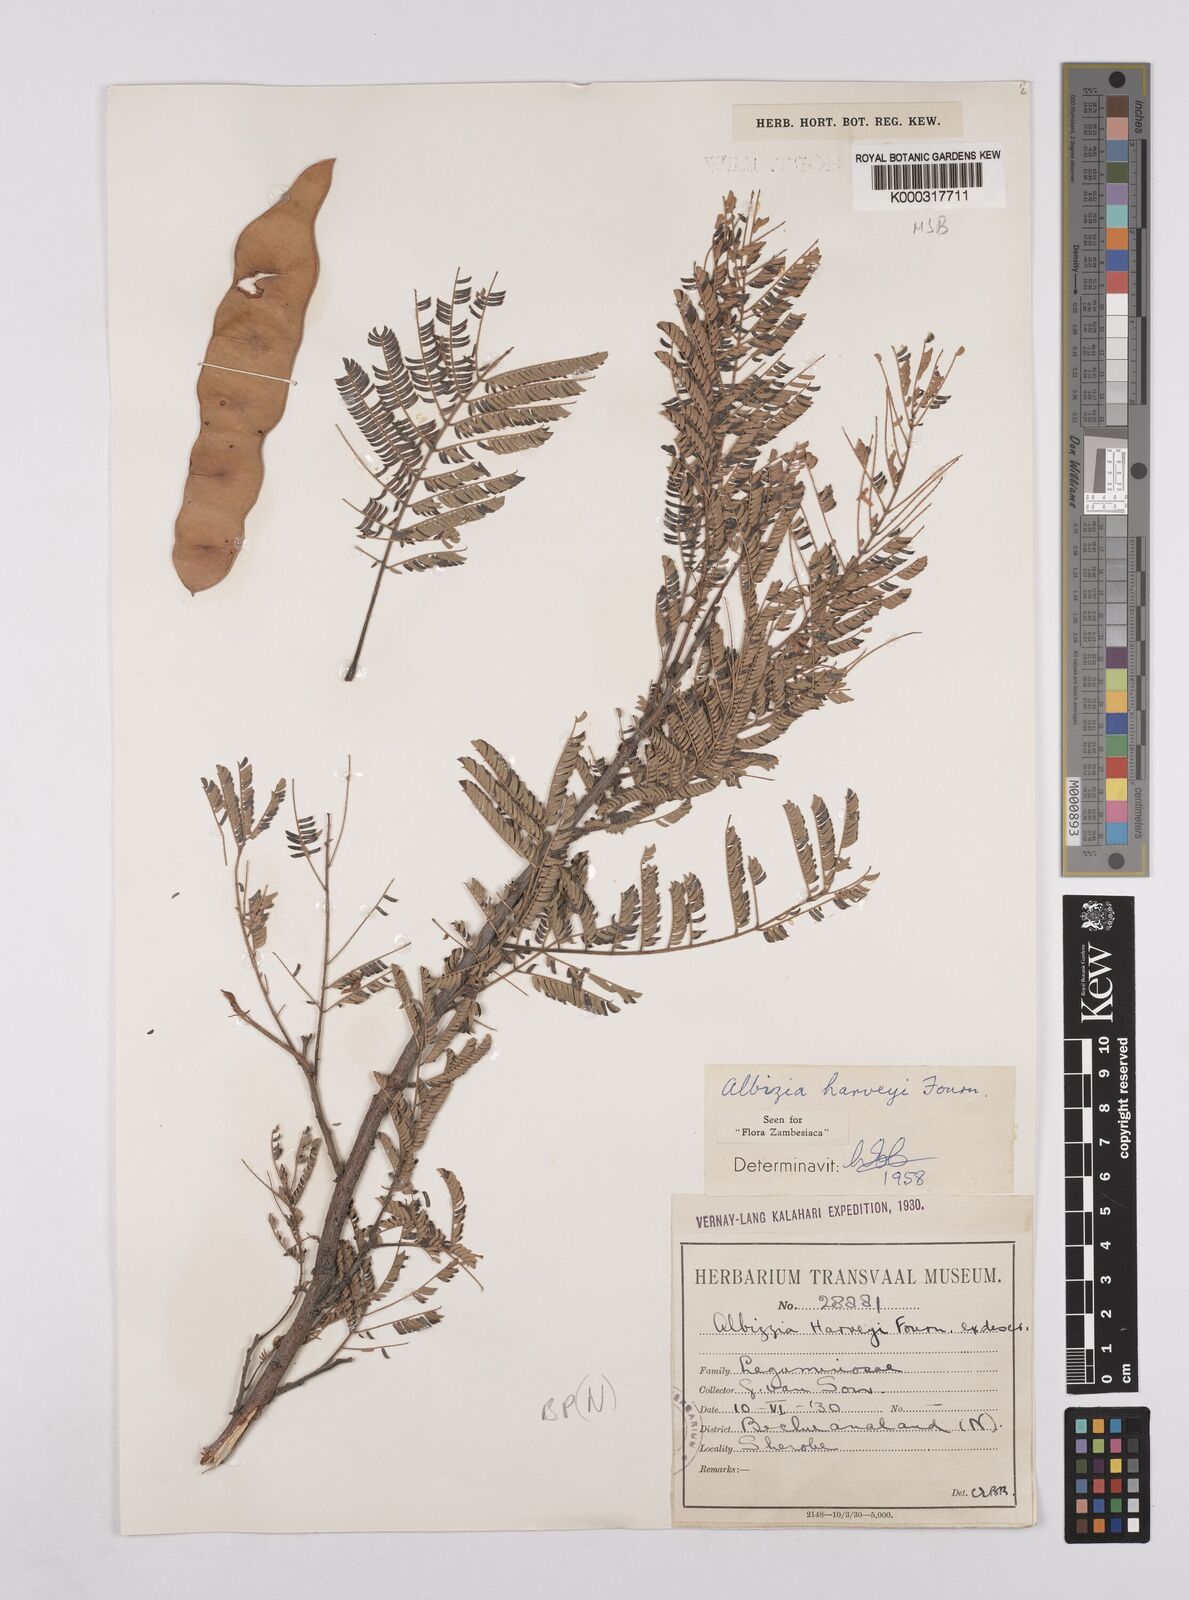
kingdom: Plantae
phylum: Tracheophyta
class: Magnoliopsida
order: Fabales
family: Fabaceae
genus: Albizia
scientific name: Albizia harveyi
